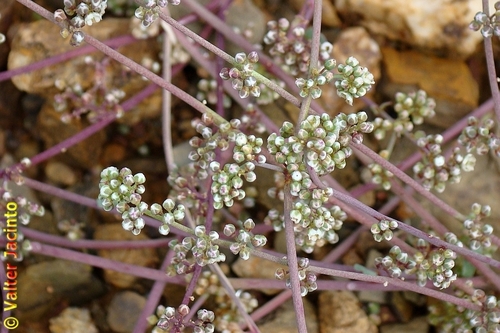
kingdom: Plantae
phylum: Tracheophyta
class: Magnoliopsida
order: Caryophyllales
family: Caryophyllaceae
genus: Corrigiola
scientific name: Corrigiola telephiifolia
